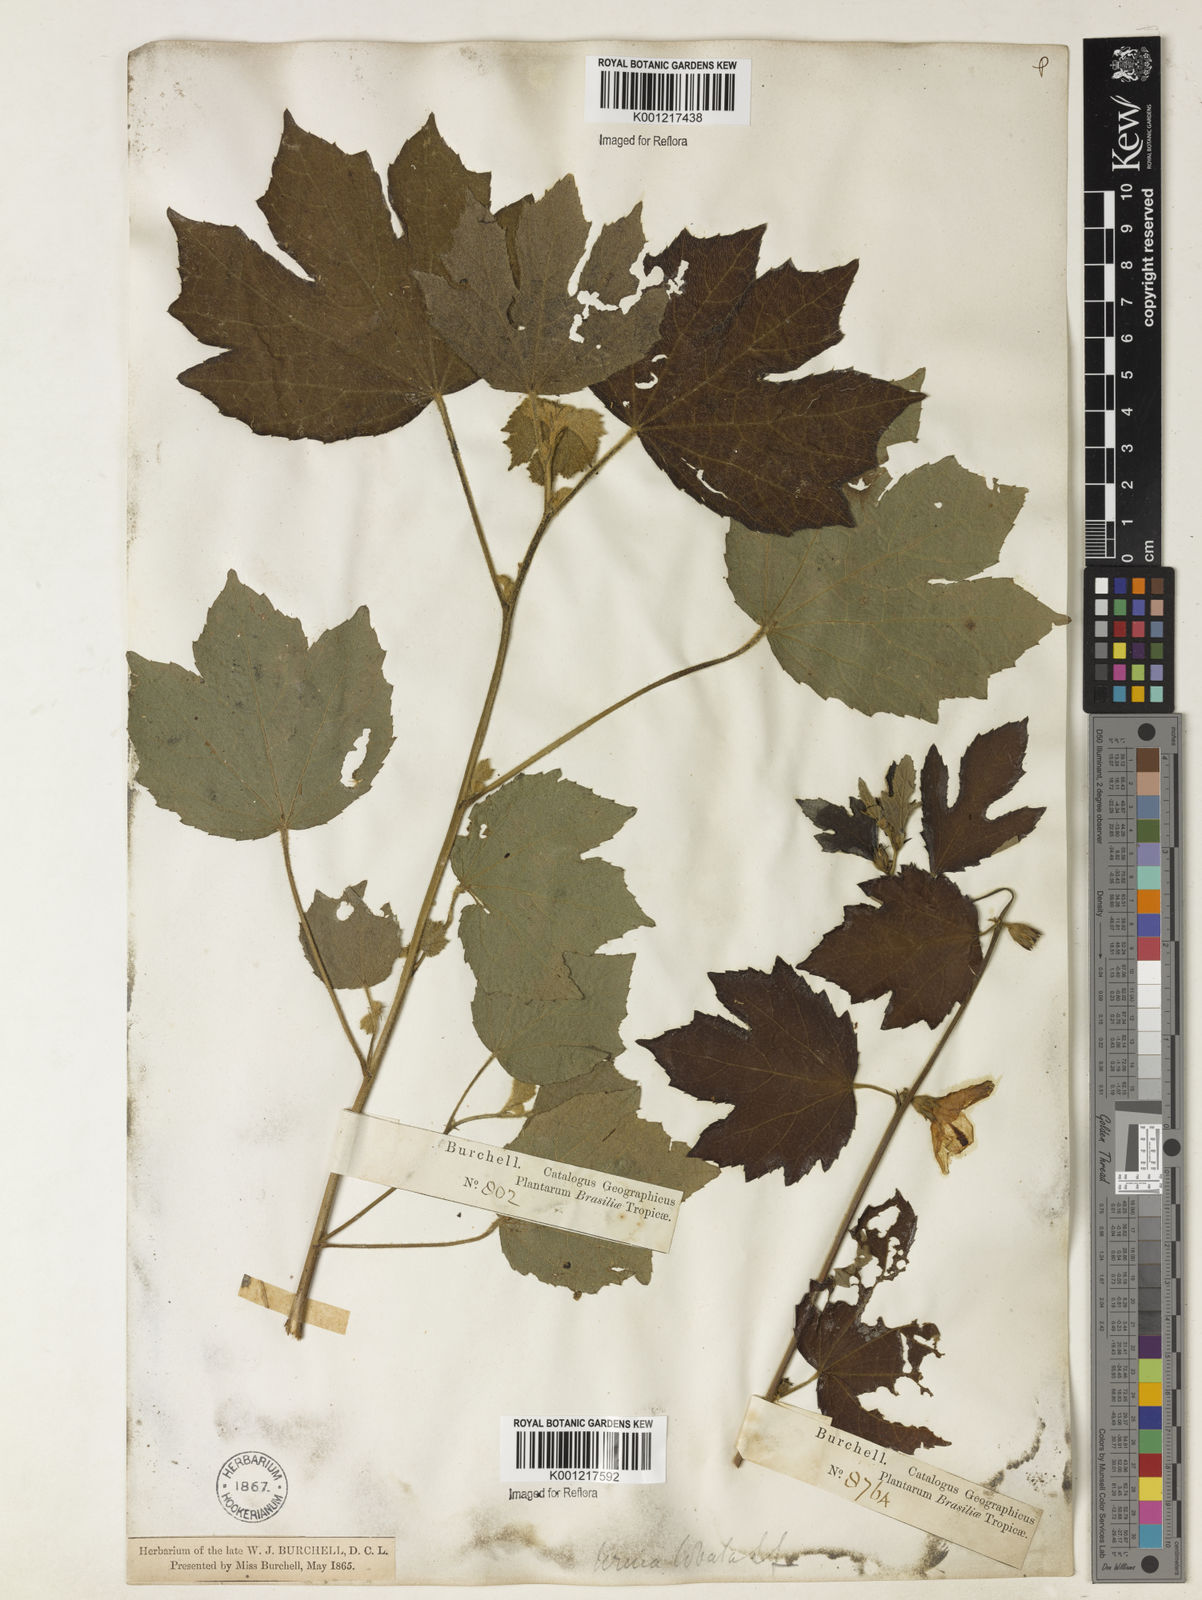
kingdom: Plantae
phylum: Tracheophyta
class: Magnoliopsida
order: Malvales
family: Malvaceae
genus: Urena
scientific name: Urena lobata
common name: Caesarweed
